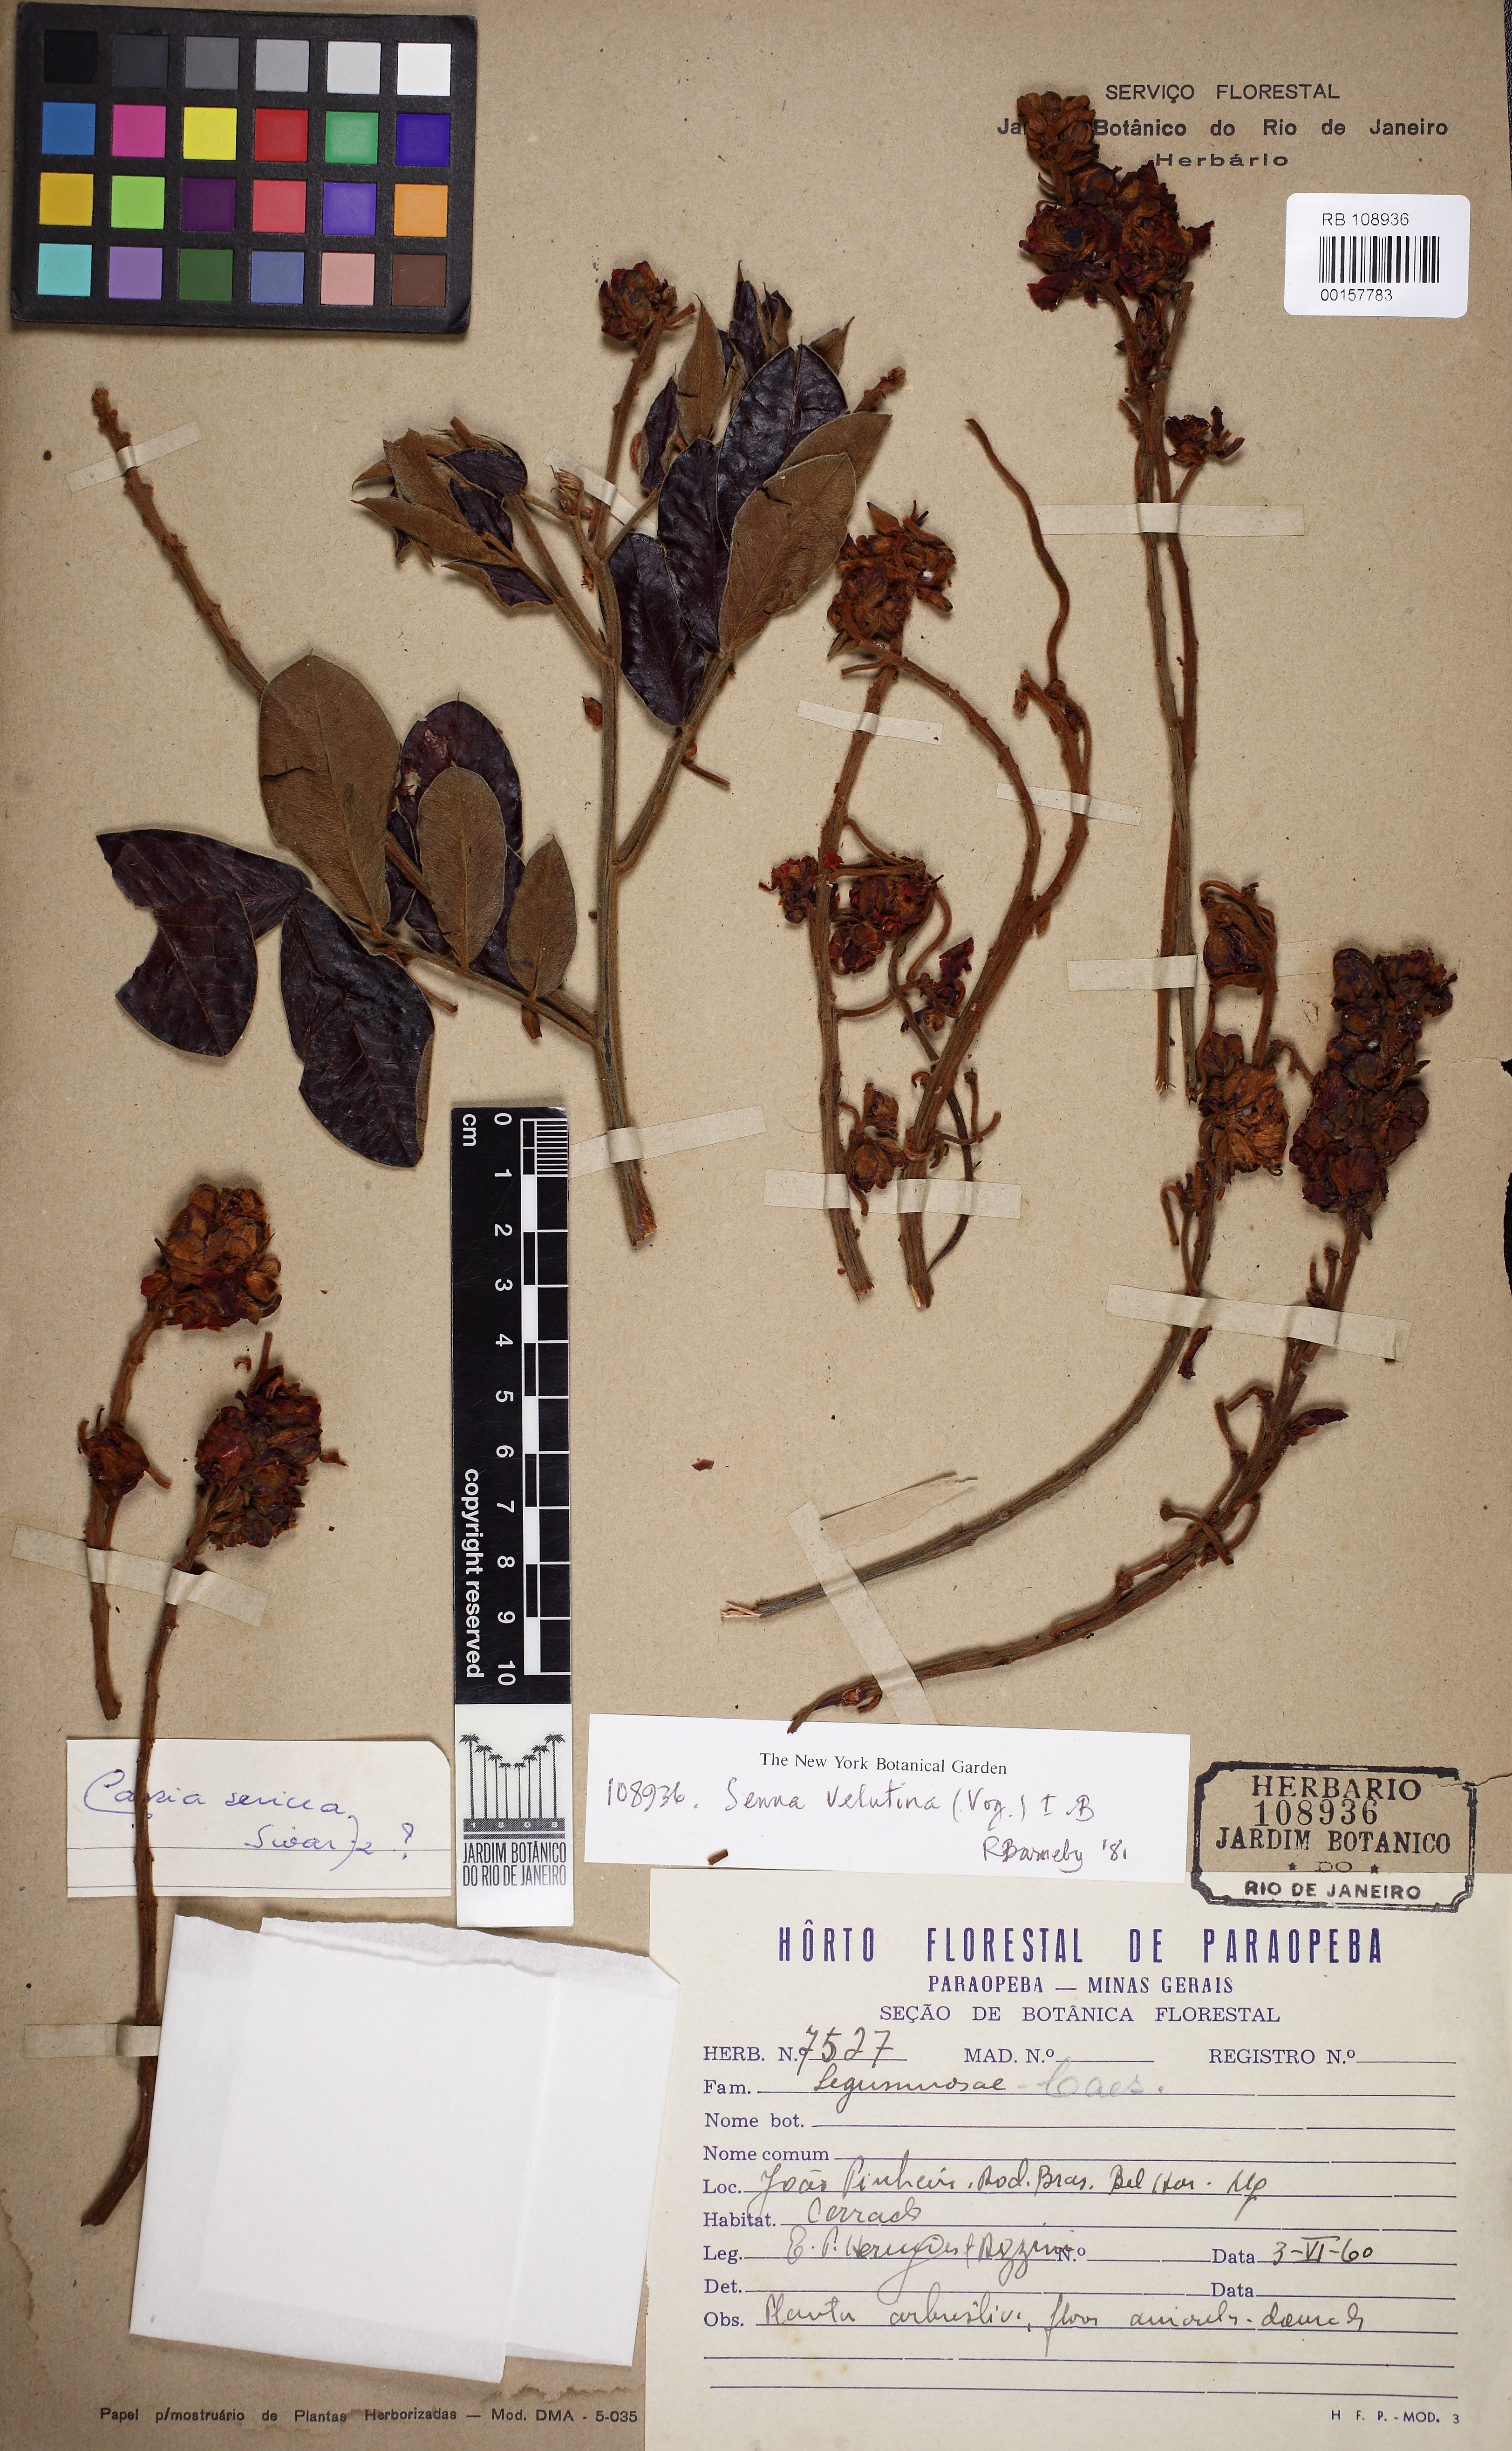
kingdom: Plantae
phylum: Tracheophyta
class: Magnoliopsida
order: Fabales
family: Fabaceae
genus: Senna
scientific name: Senna velutina
